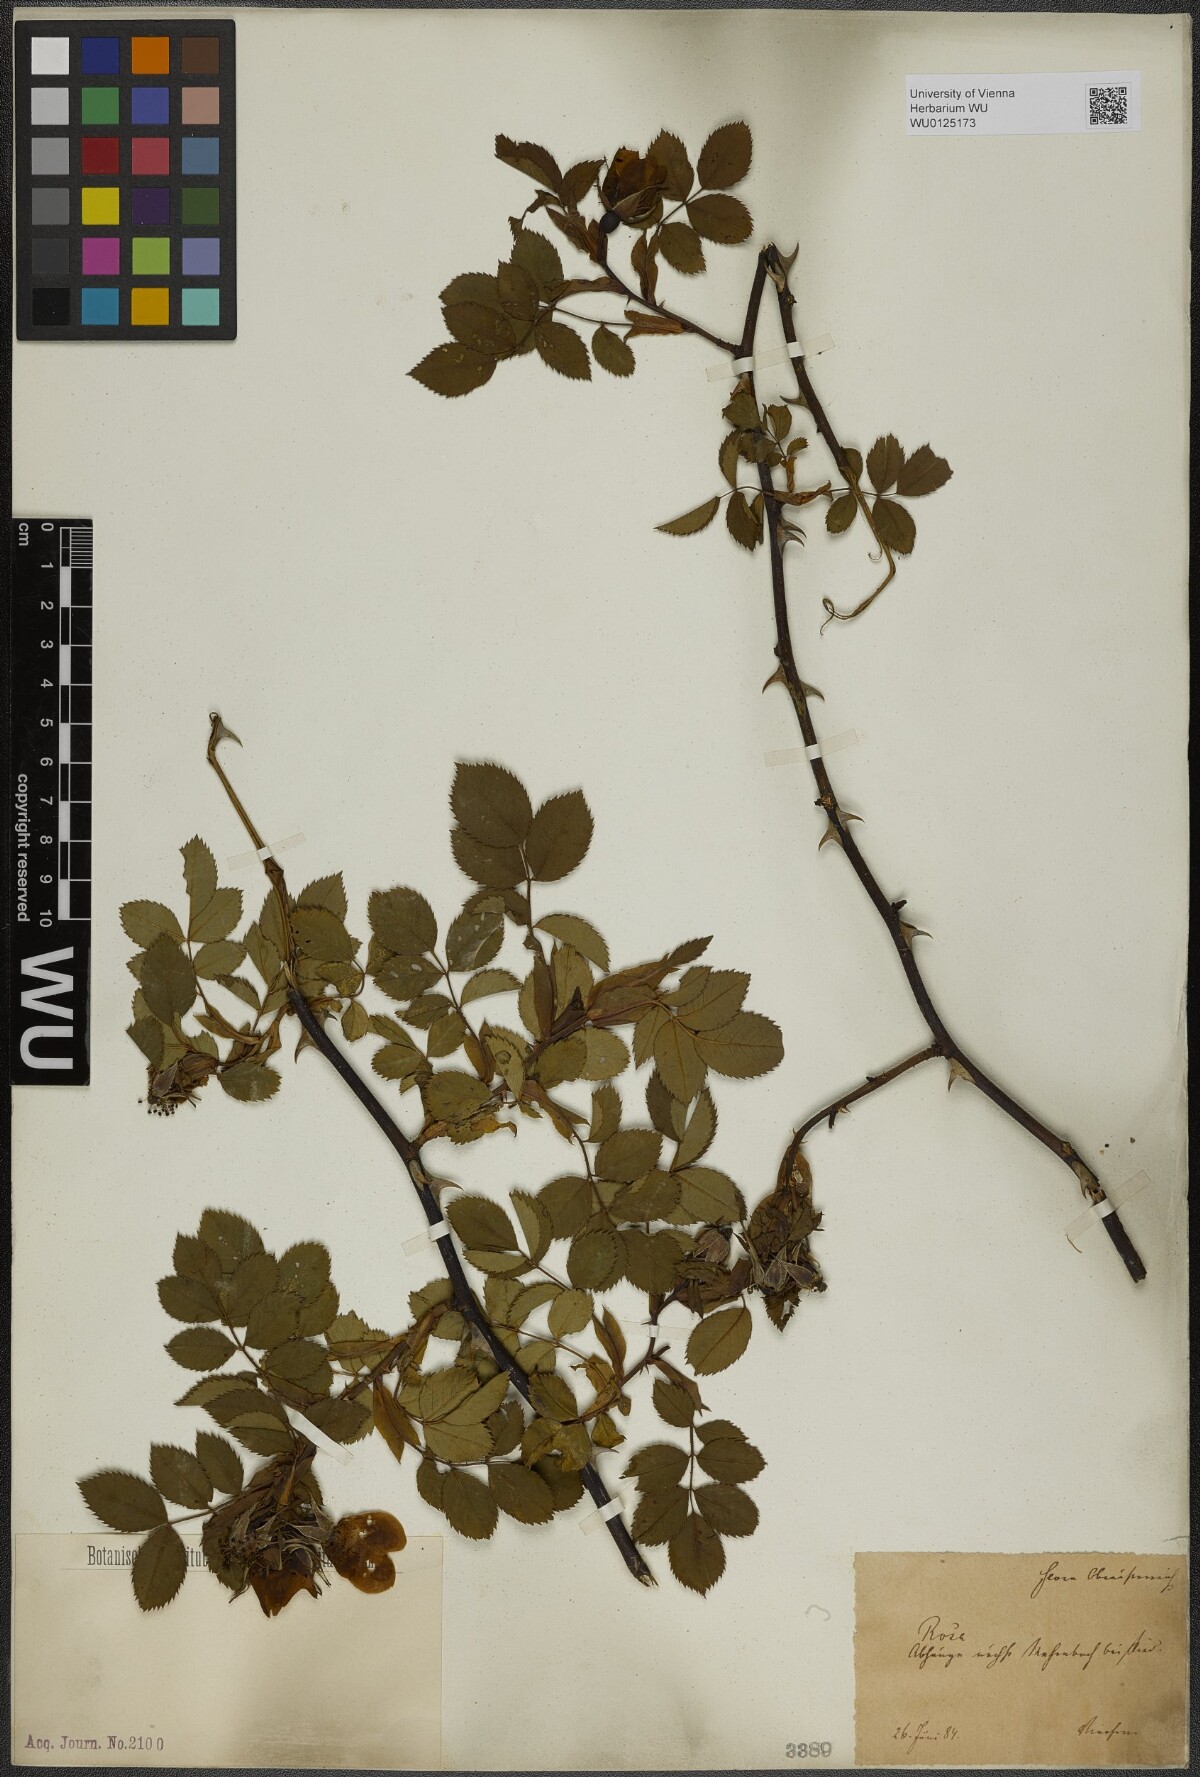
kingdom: Plantae
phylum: Tracheophyta
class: Magnoliopsida
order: Rosales
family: Rosaceae
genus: Rosa
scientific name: Rosa
